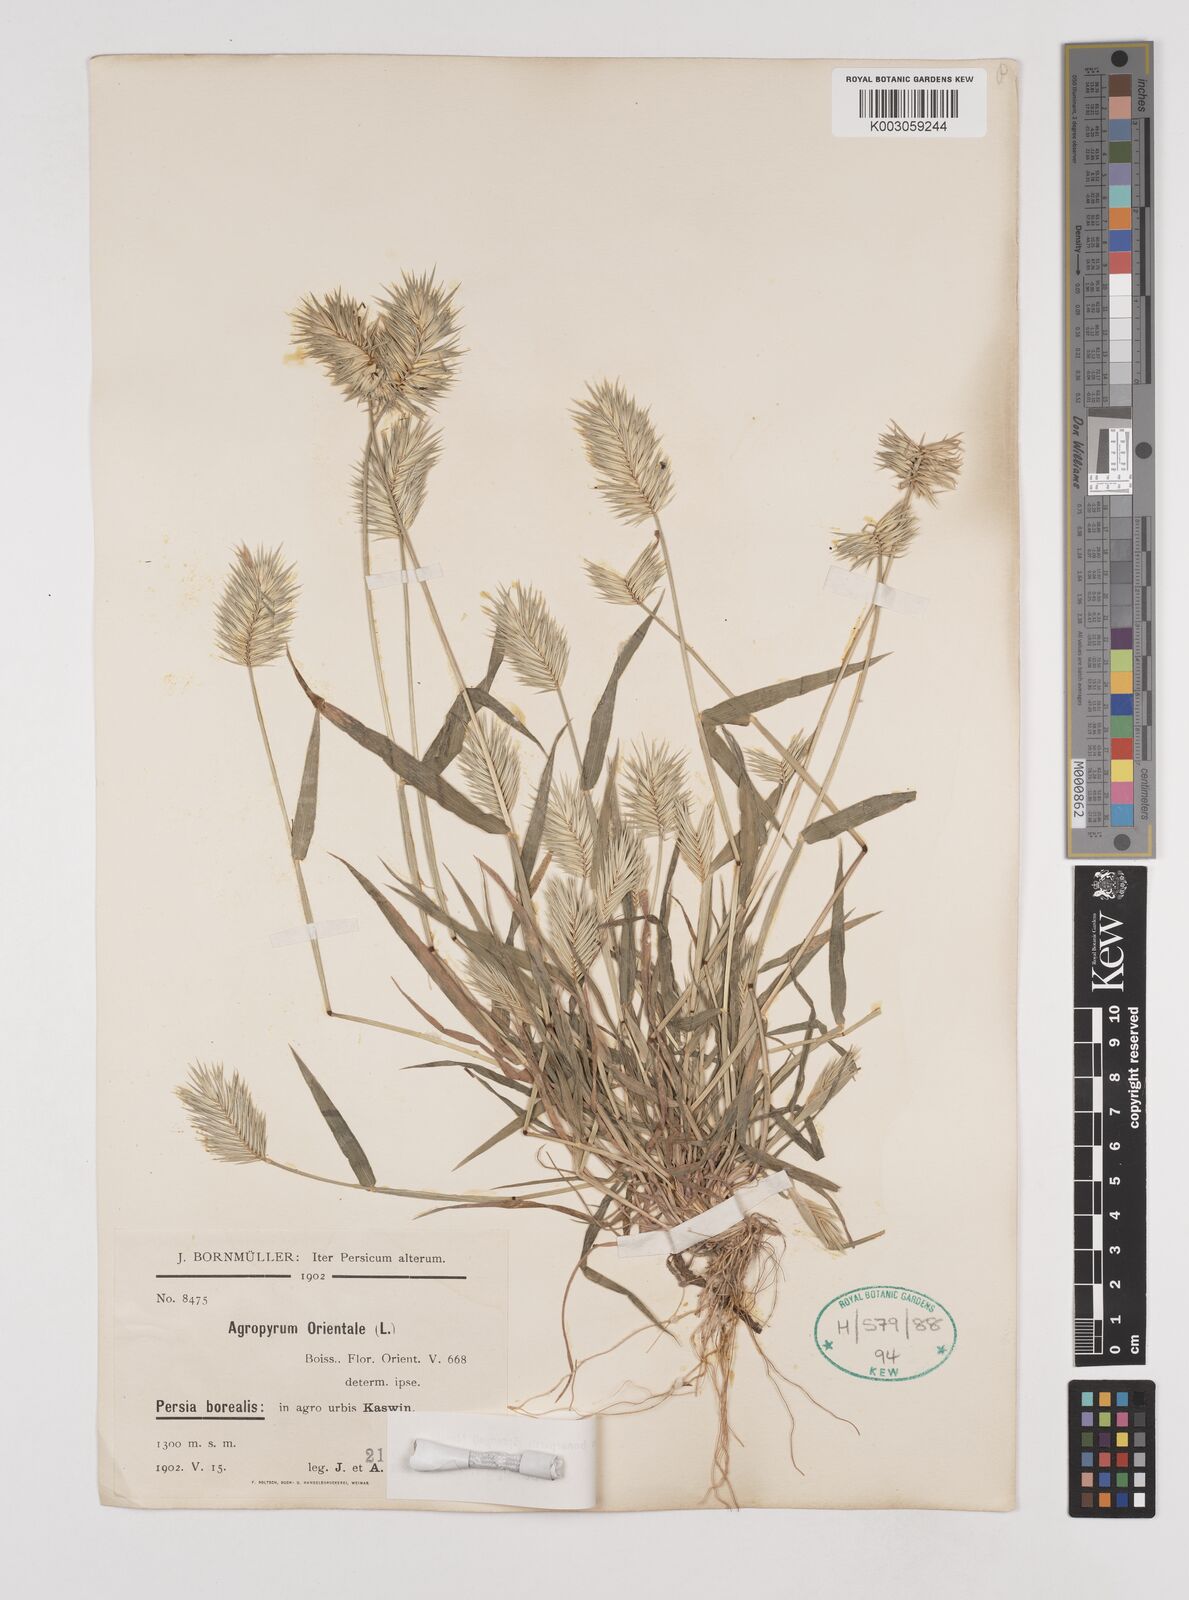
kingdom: Plantae
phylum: Tracheophyta
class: Liliopsida
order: Poales
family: Poaceae
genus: Eremopyrum
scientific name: Eremopyrum bonaepartis
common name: Tapertip false wheatgrass
